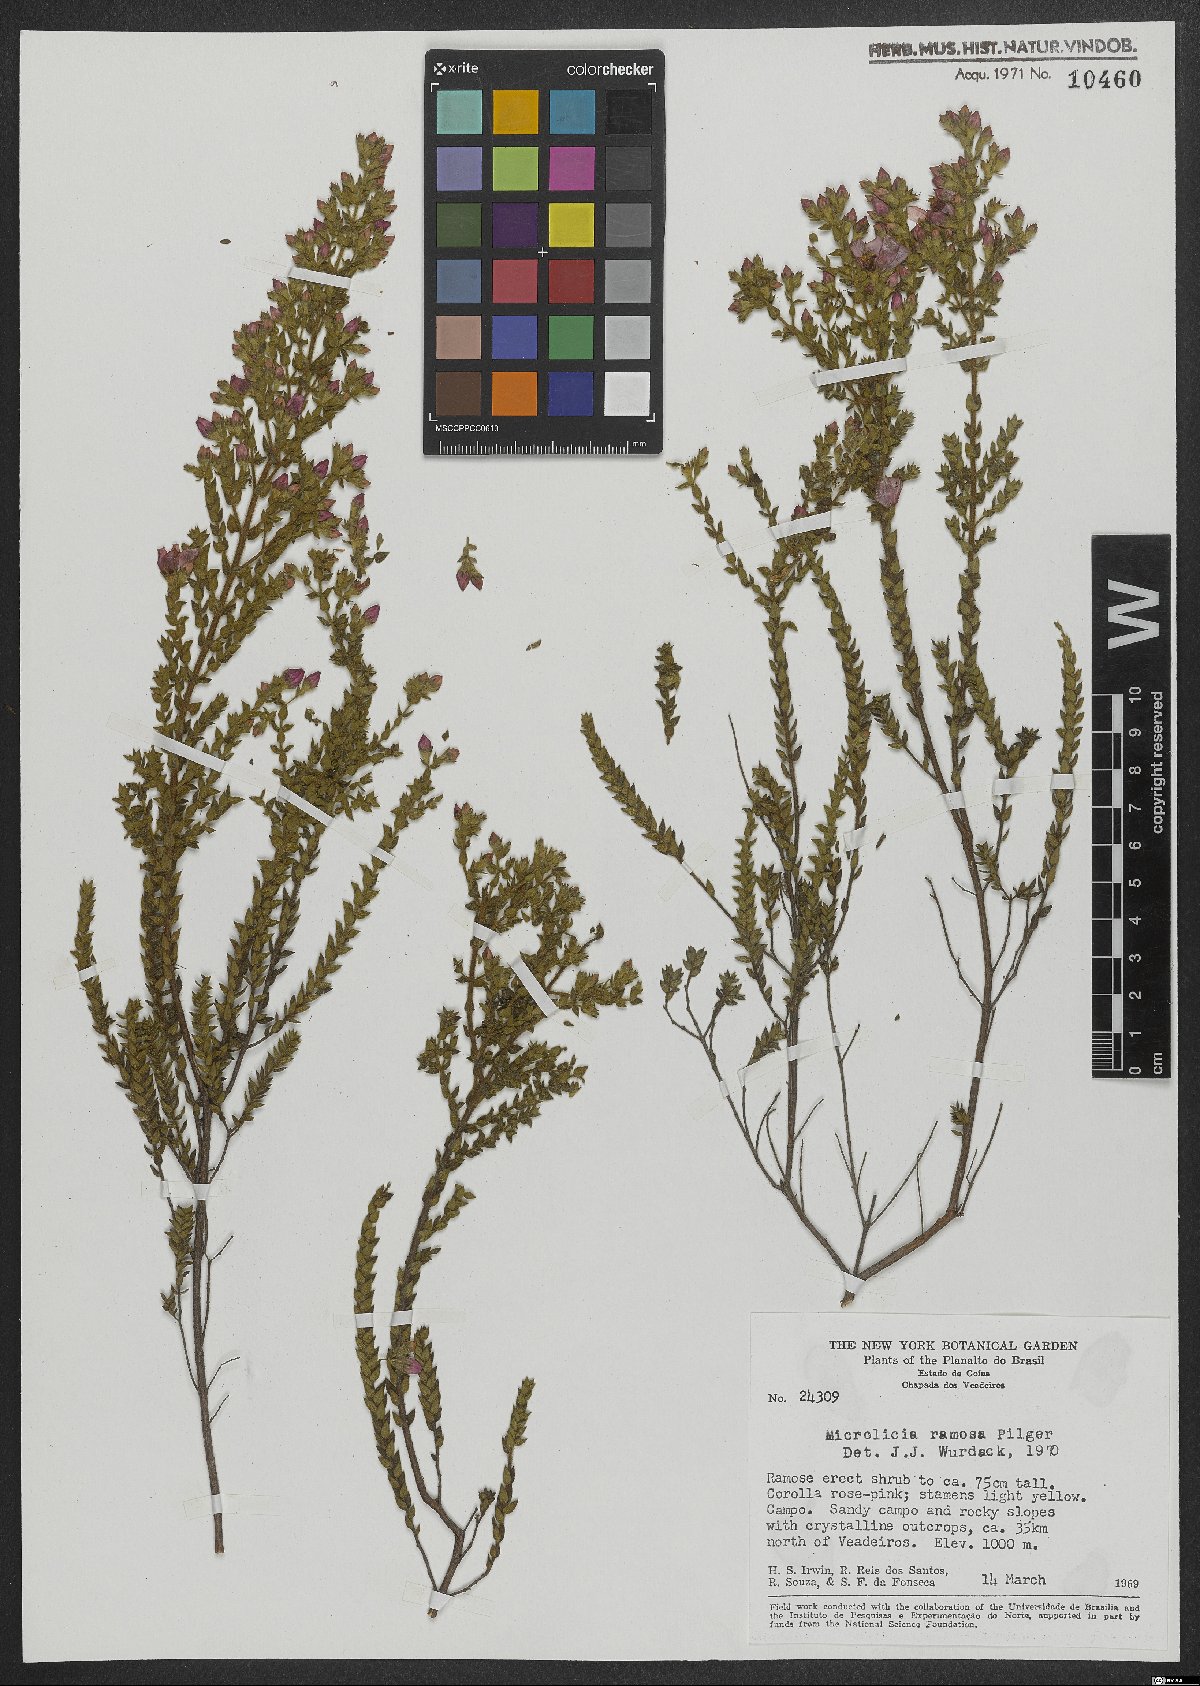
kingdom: Plantae
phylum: Tracheophyta
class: Magnoliopsida
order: Myrtales
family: Melastomataceae
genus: Microlicia
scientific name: Microlicia ramosa
